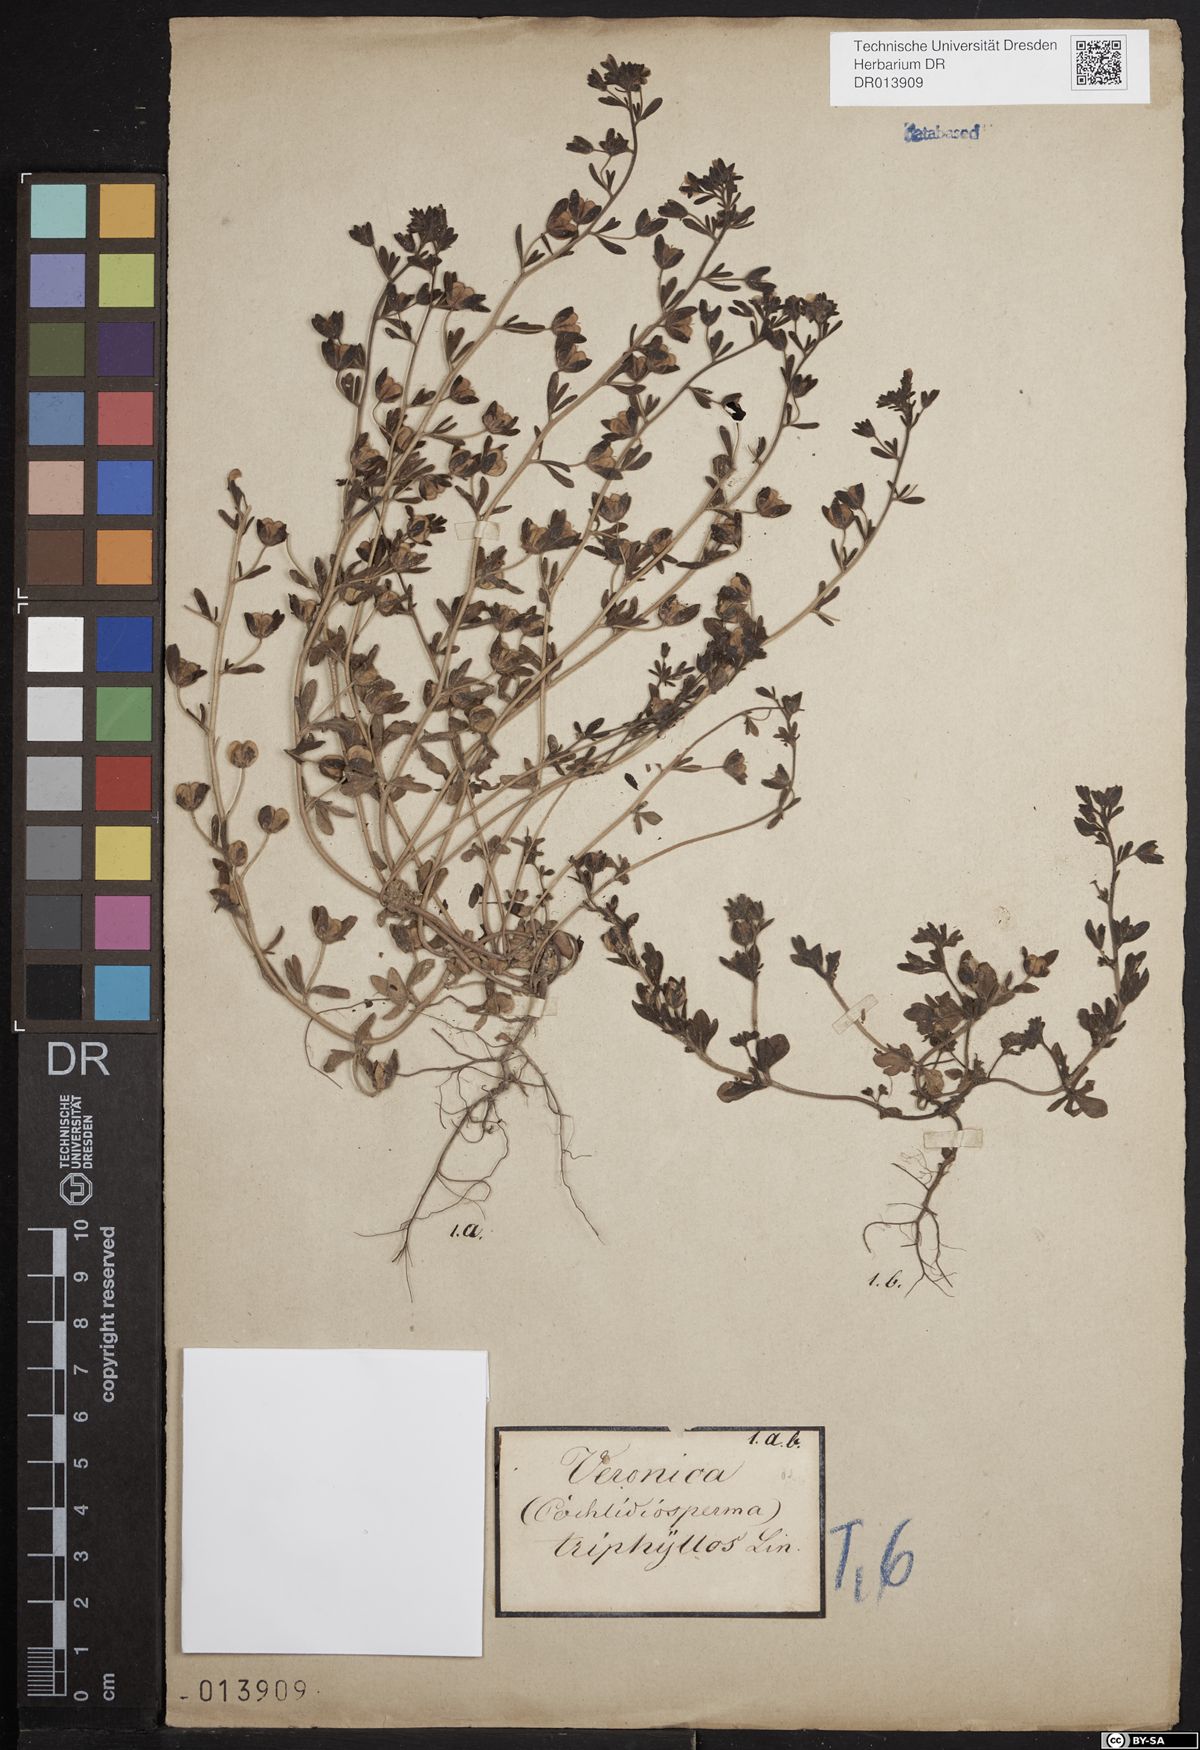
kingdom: Plantae
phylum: Tracheophyta
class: Magnoliopsida
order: Lamiales
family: Plantaginaceae
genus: Veronica
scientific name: Veronica triphyllos
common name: Fingered speedwell
